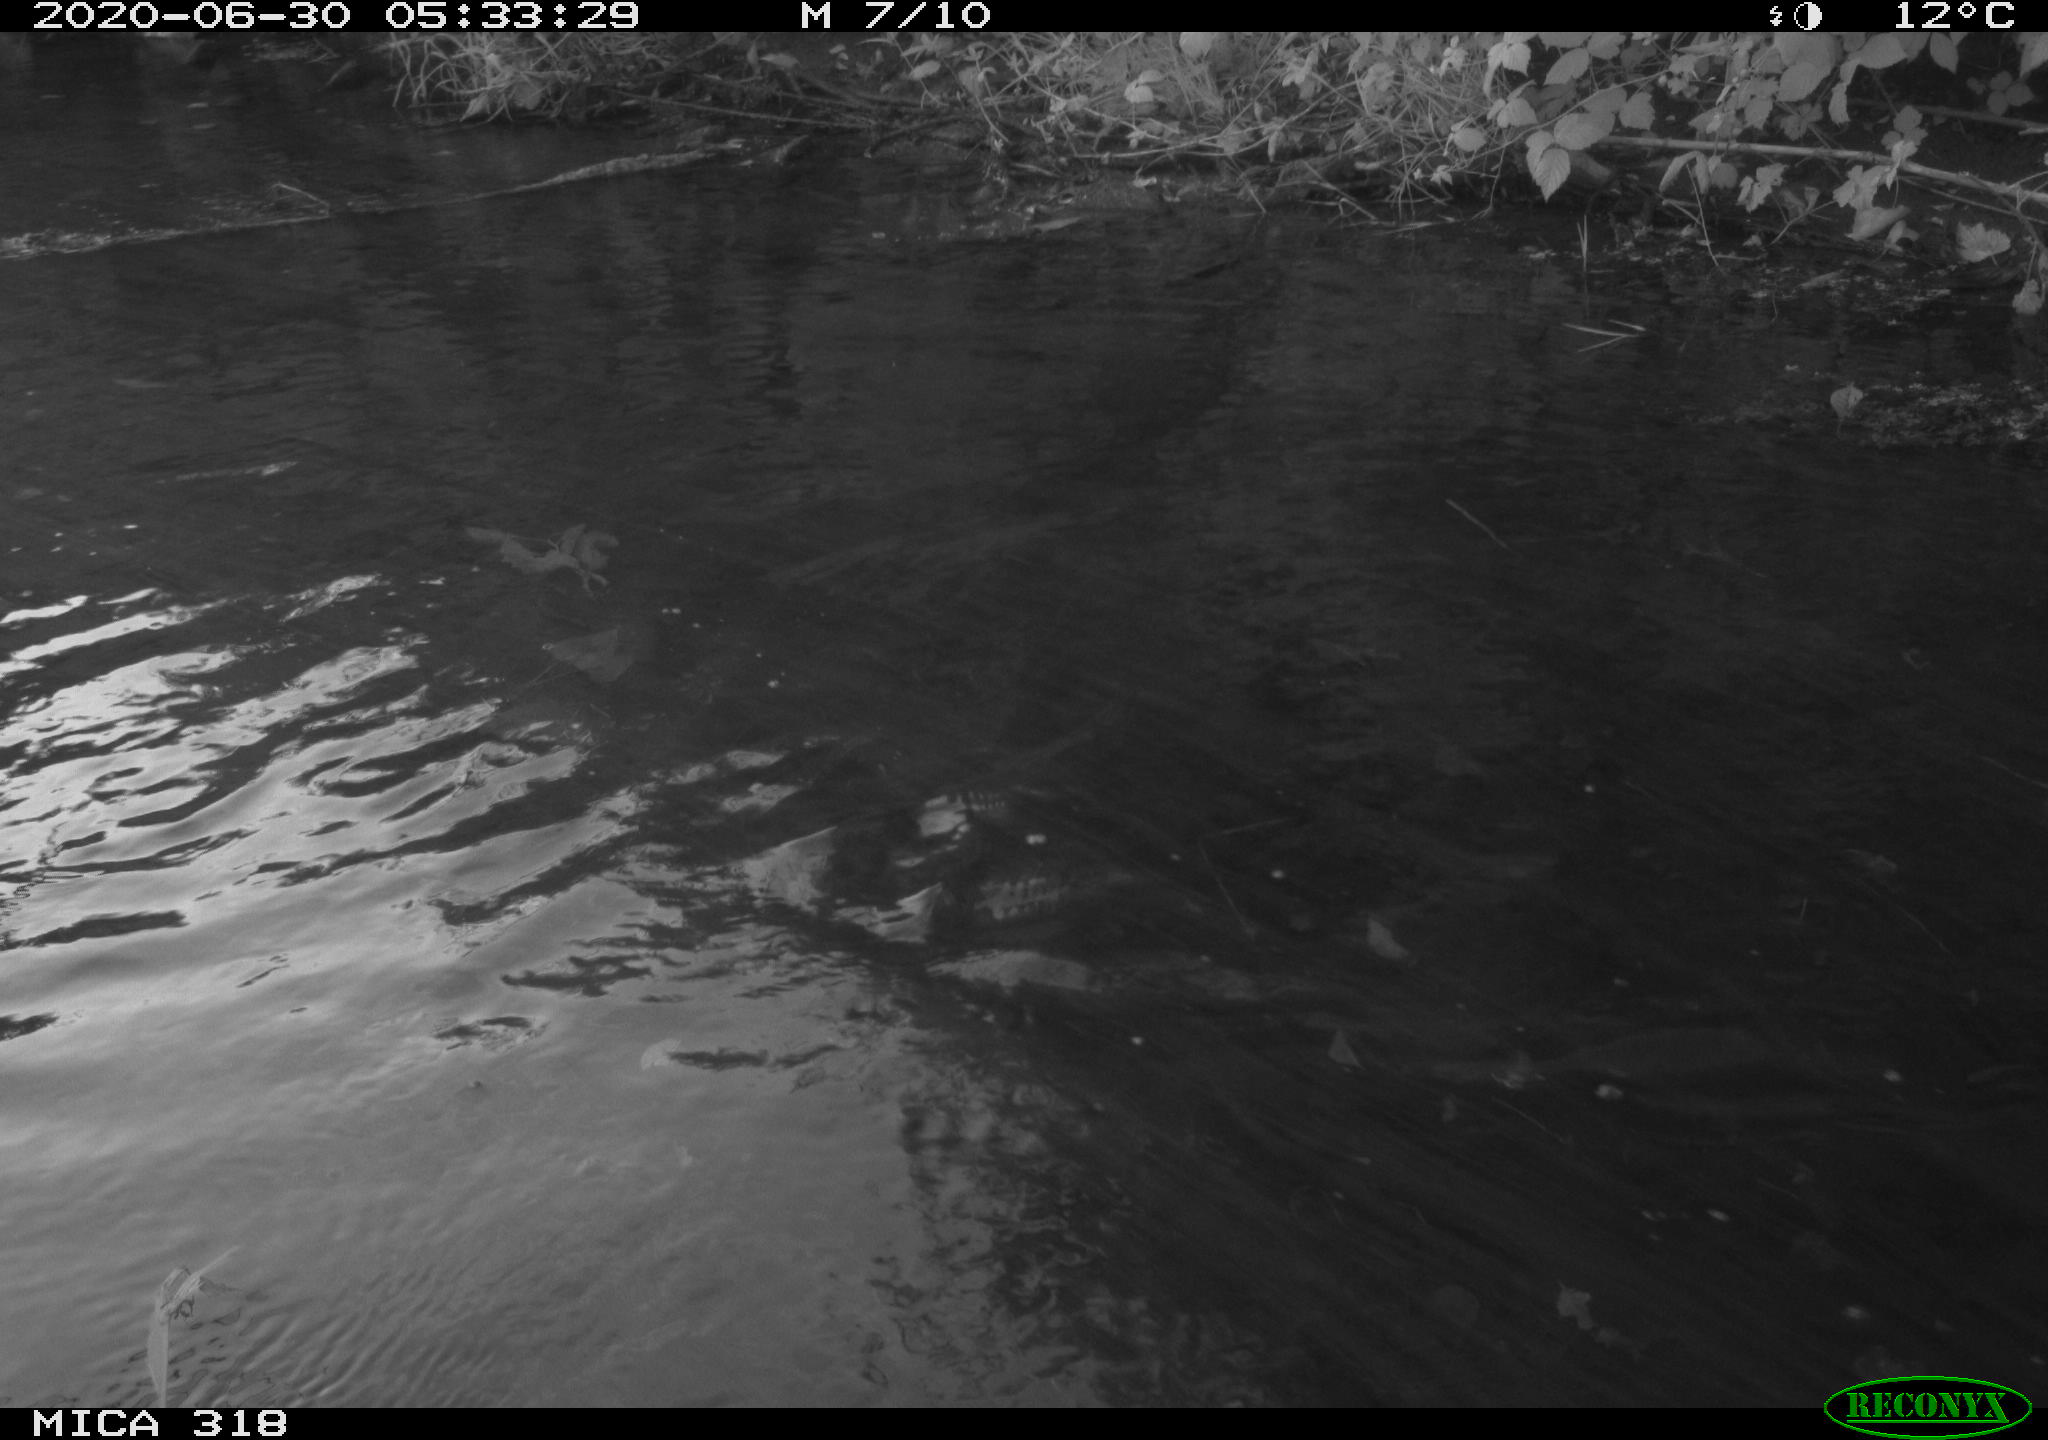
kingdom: Animalia
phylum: Chordata
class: Aves
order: Gruiformes
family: Rallidae
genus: Gallinula
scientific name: Gallinula chloropus
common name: Common moorhen
